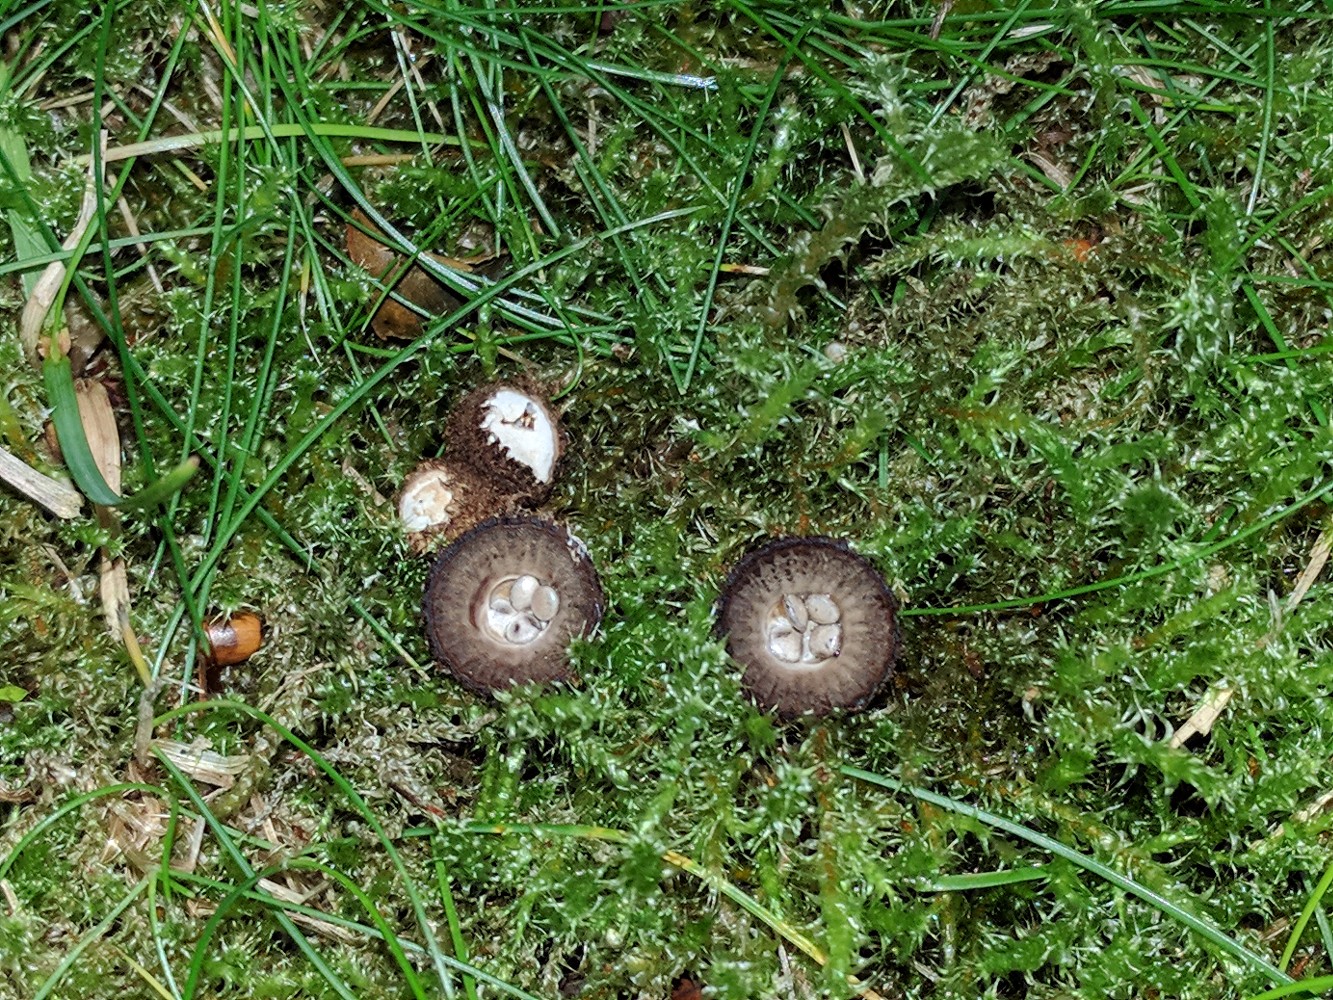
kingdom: Fungi
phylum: Basidiomycota
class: Agaricomycetes
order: Agaricales
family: Agaricaceae
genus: Cyathus
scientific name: Cyathus striatus
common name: stribet redesvamp
